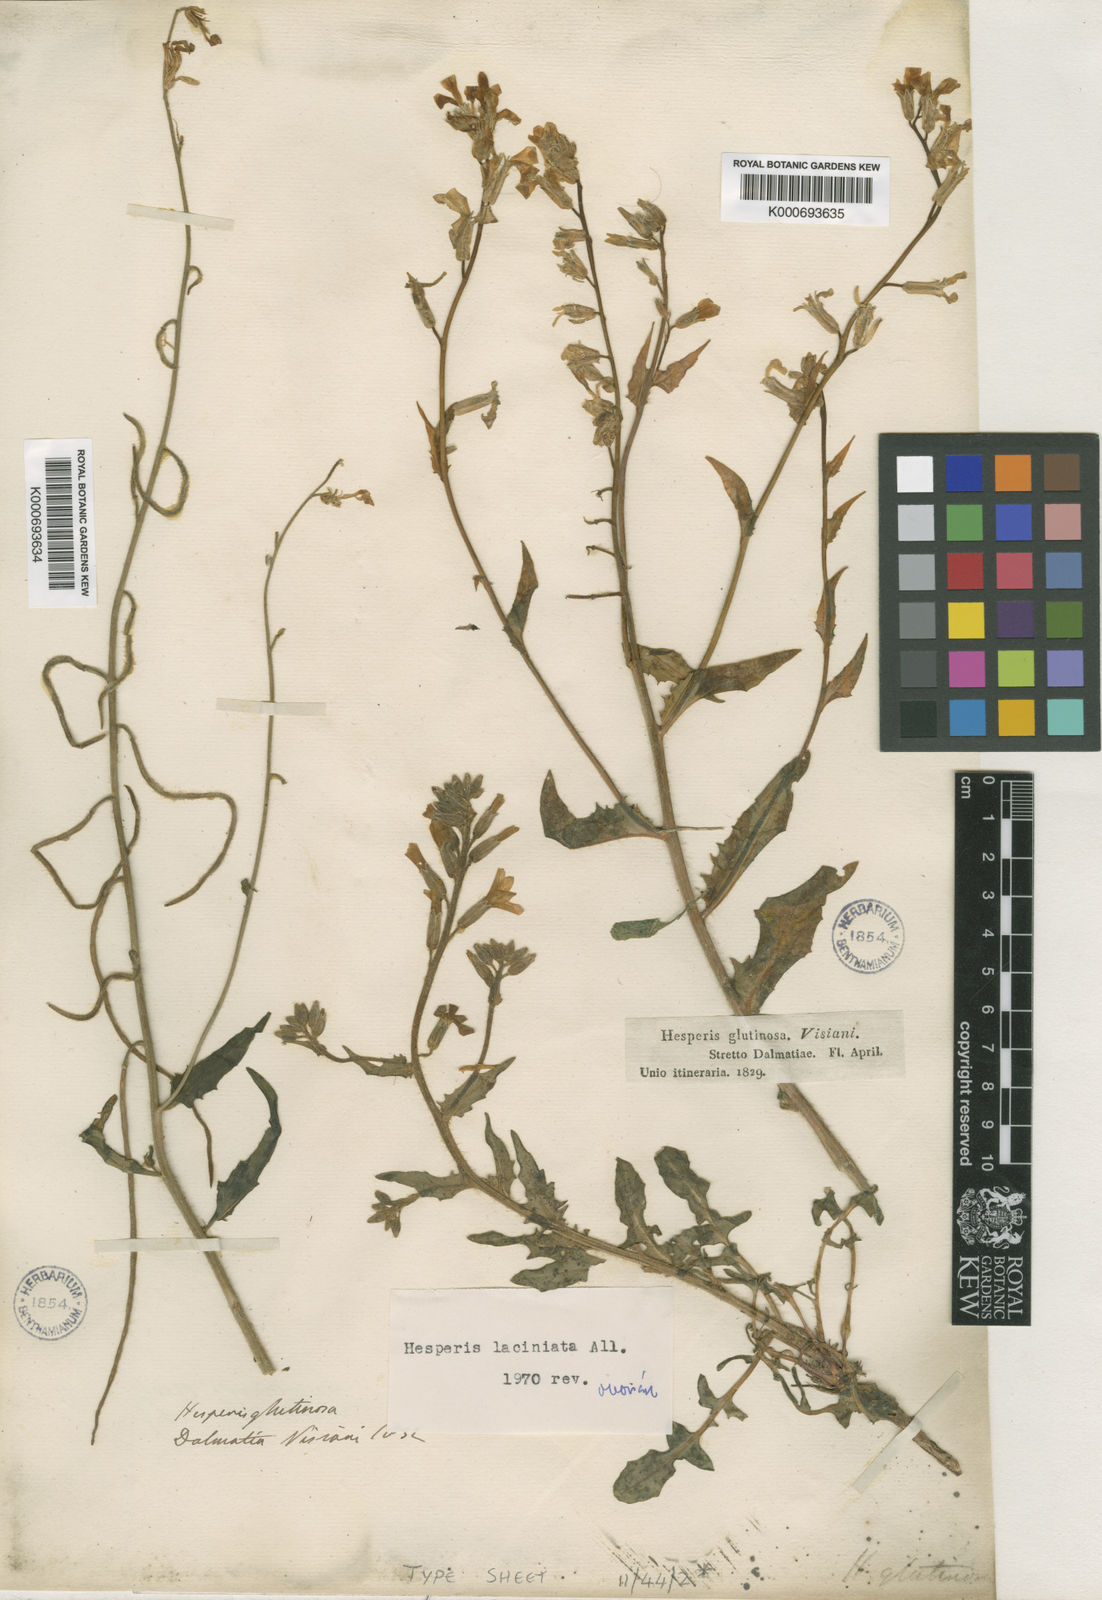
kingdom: Plantae
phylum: Tracheophyta
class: Magnoliopsida
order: Brassicales
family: Brassicaceae
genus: Hesperis
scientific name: Hesperis laciniata
